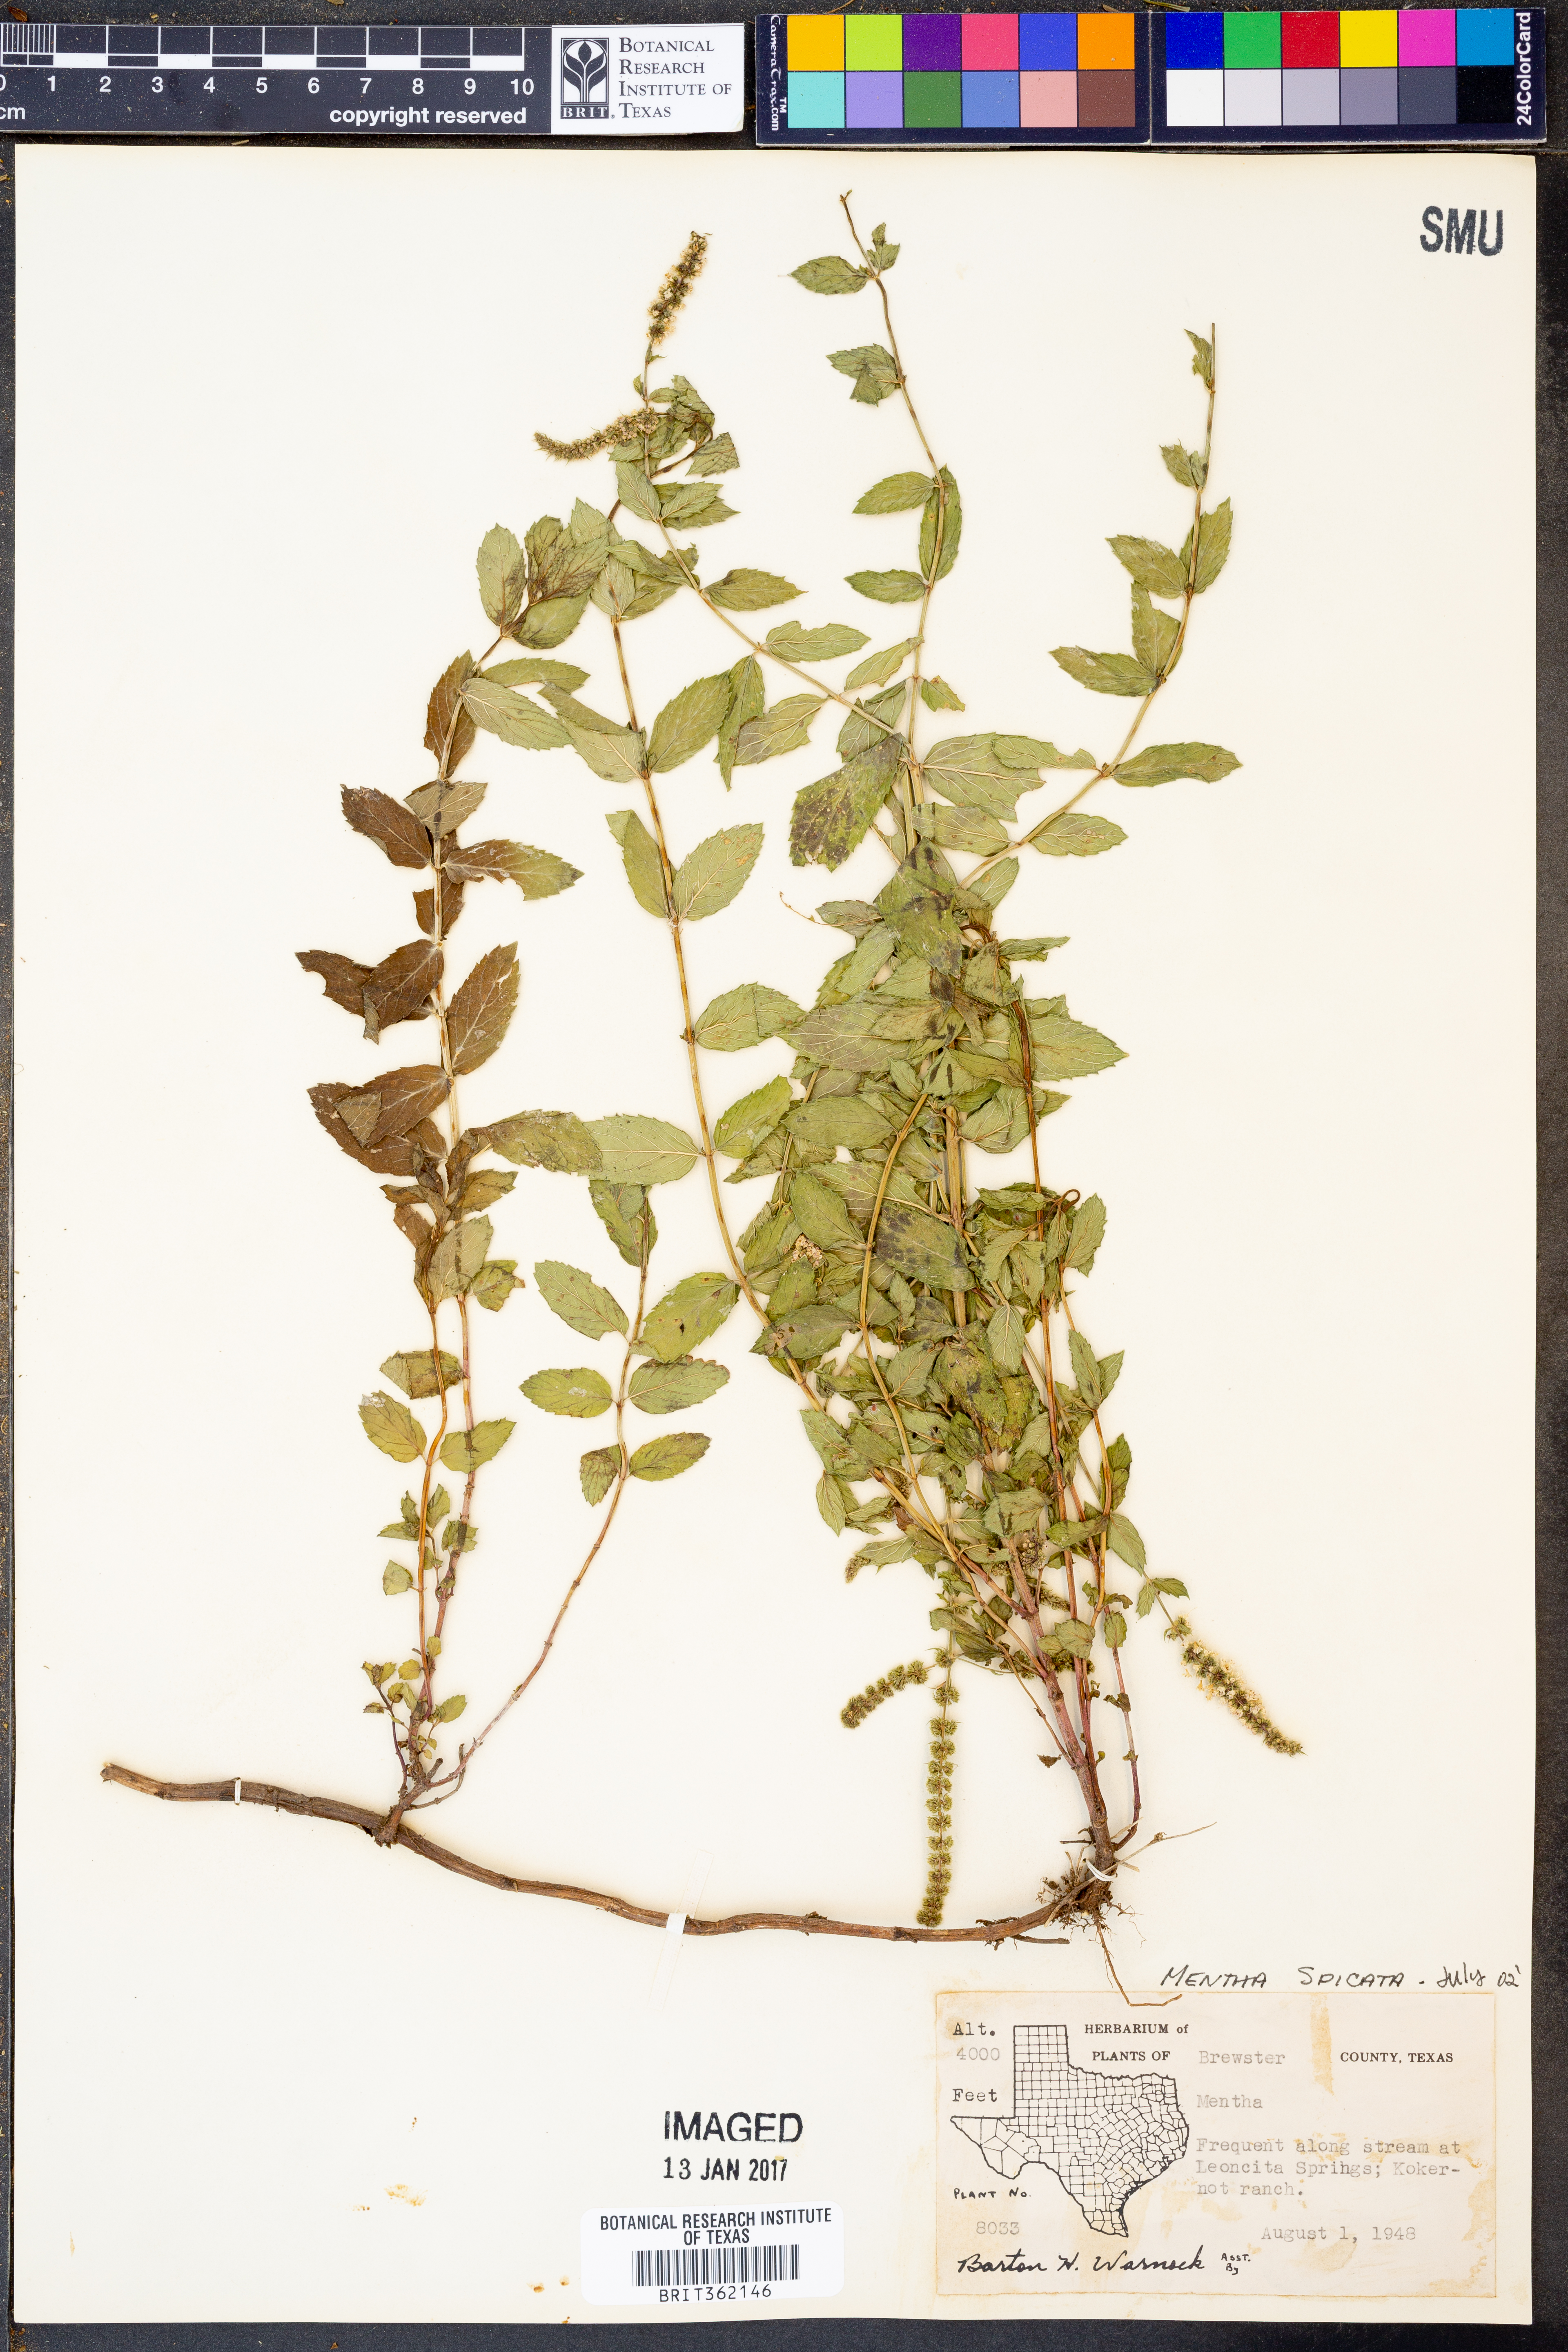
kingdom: Plantae
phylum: Tracheophyta
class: Magnoliopsida
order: Lamiales
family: Lamiaceae
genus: Mentha
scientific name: Mentha spicata
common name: Spearmint
